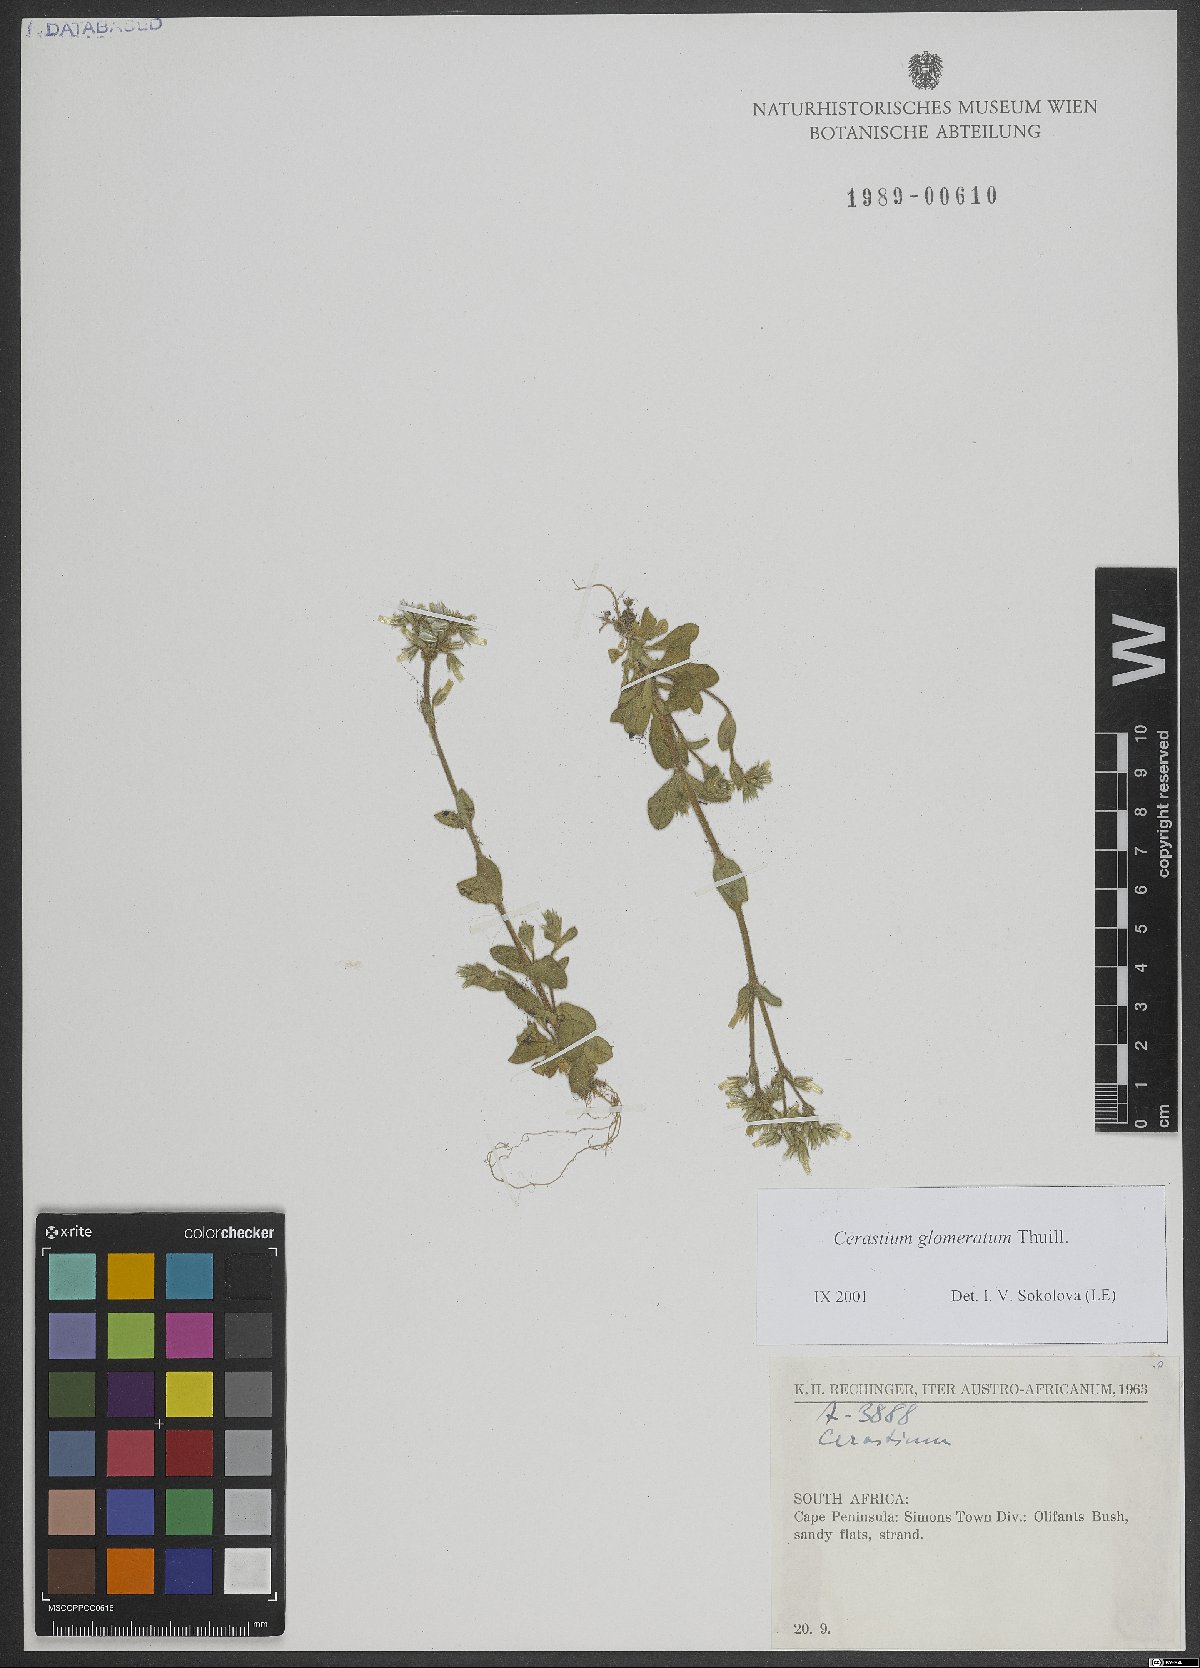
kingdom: Plantae
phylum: Tracheophyta
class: Magnoliopsida
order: Caryophyllales
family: Caryophyllaceae
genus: Cerastium
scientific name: Cerastium glomeratum
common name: Sticky chickweed
